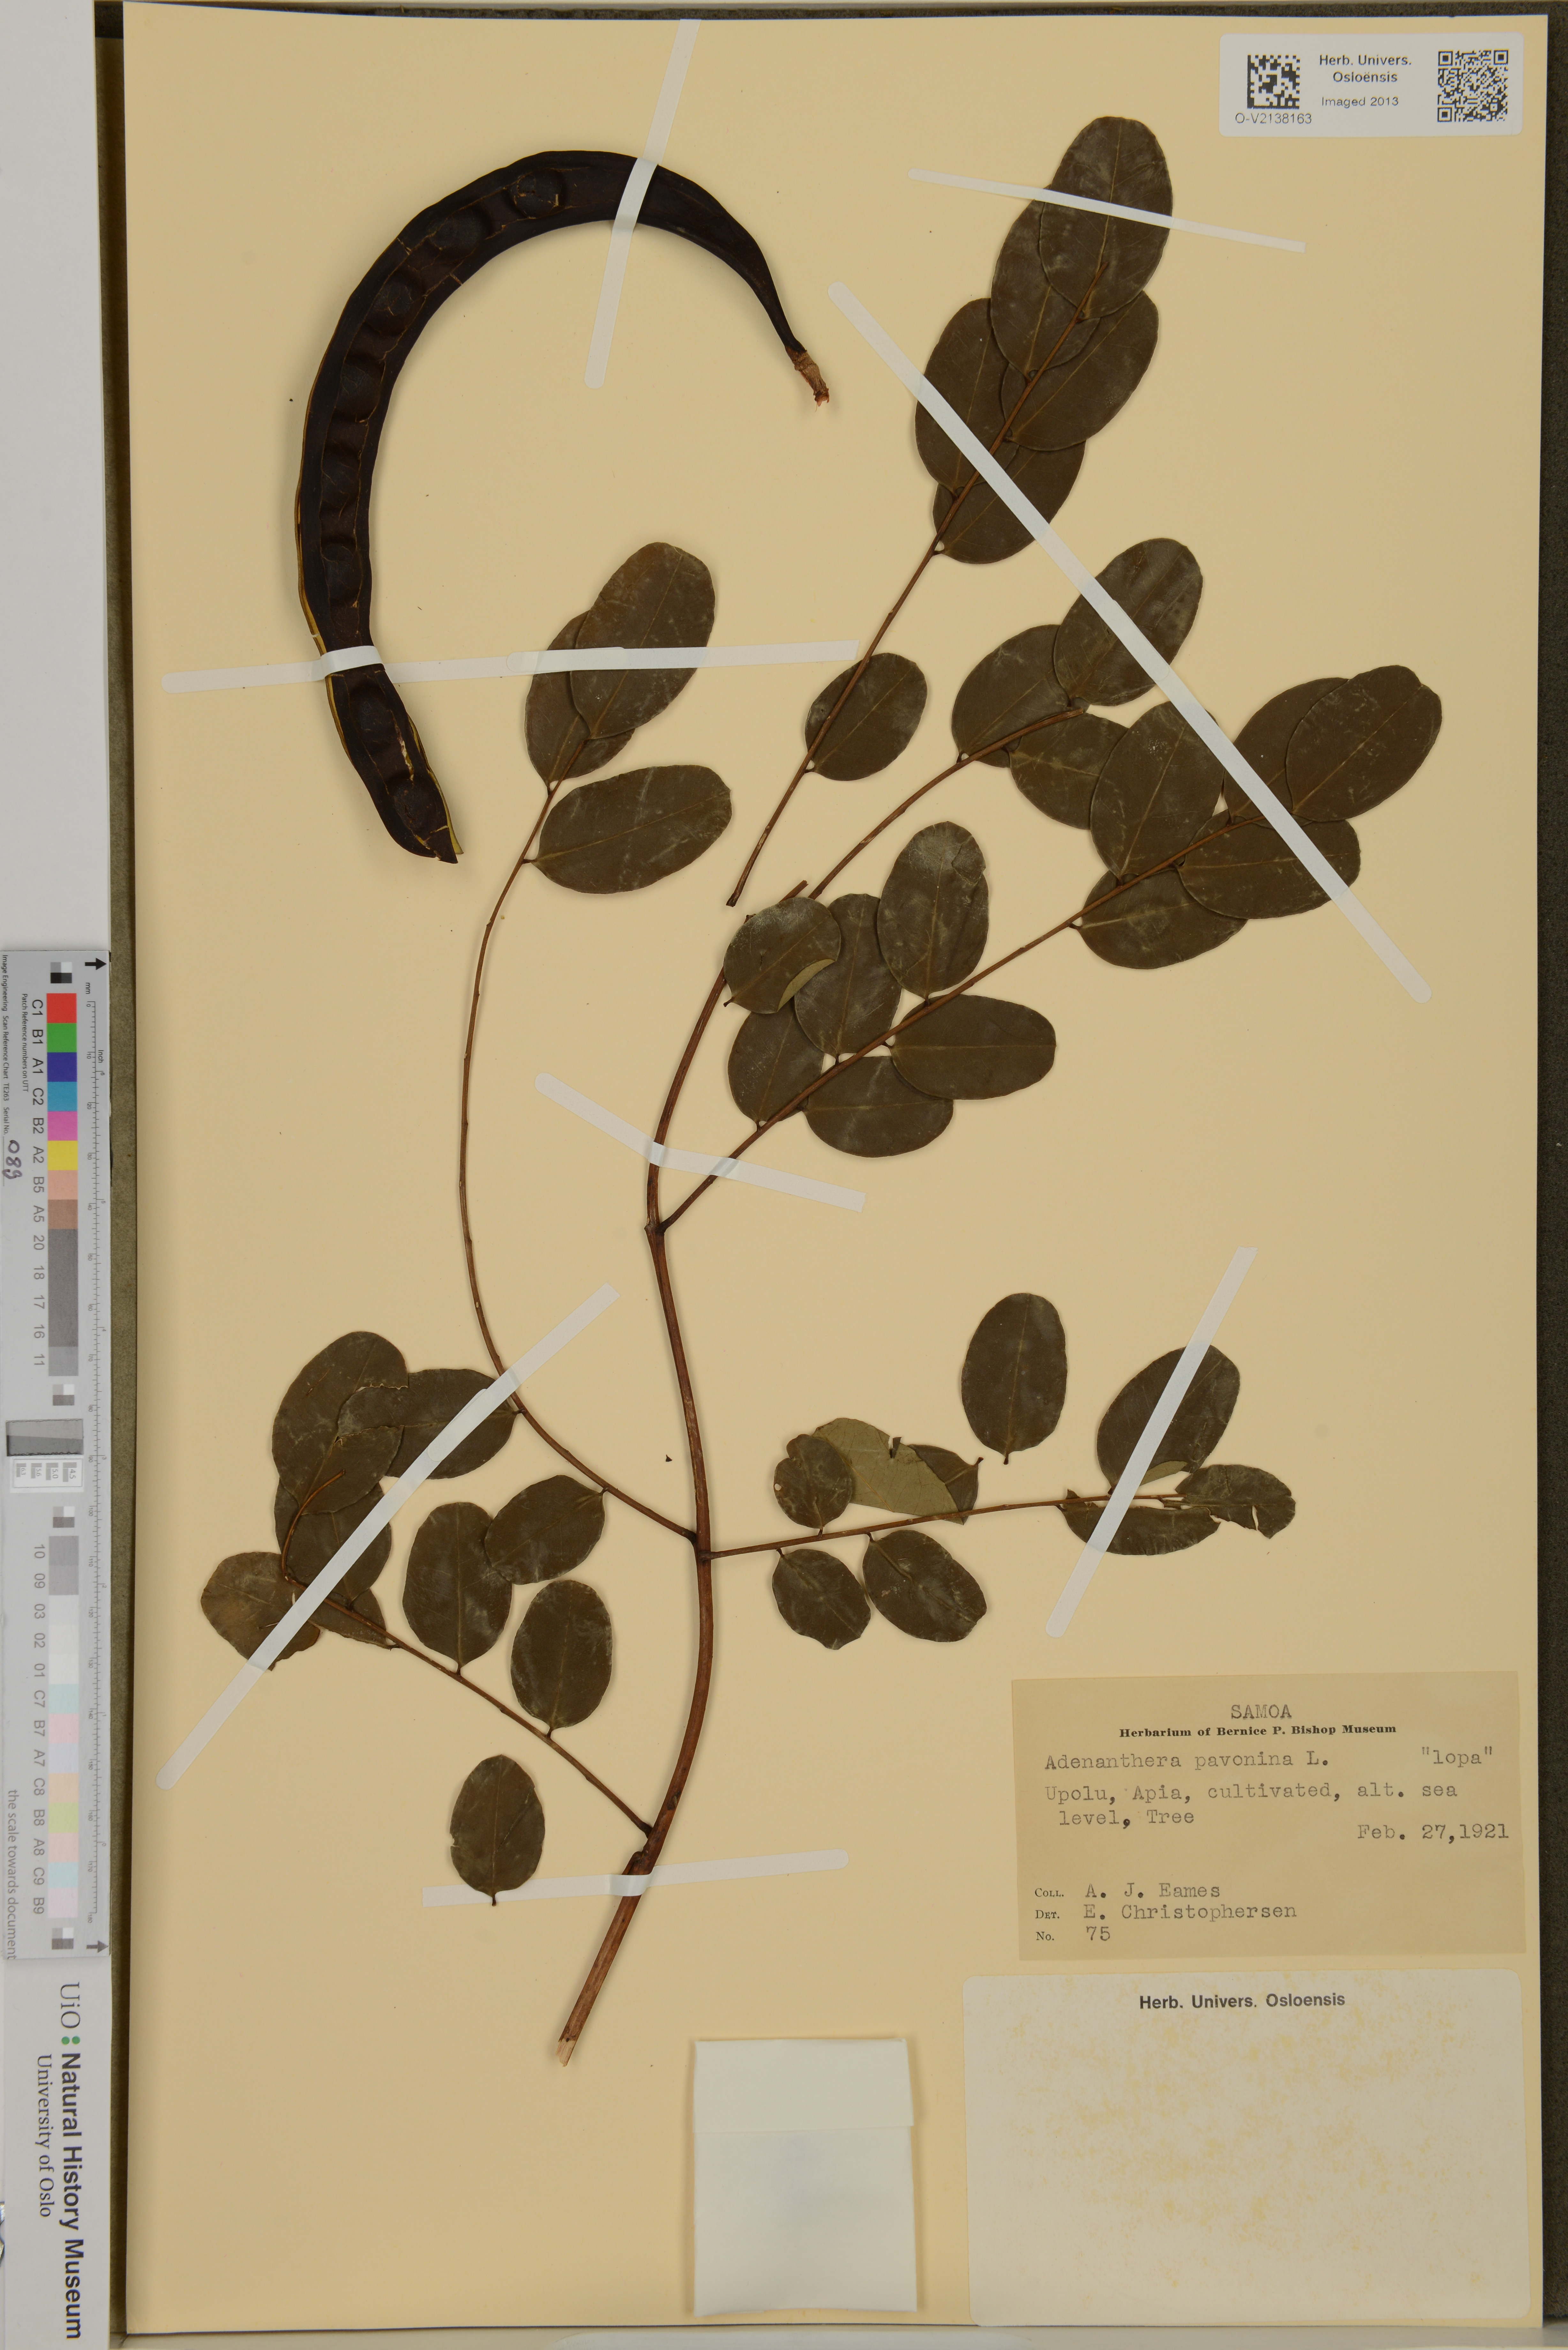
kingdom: Plantae
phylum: Tracheophyta
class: Magnoliopsida
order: Fabales
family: Fabaceae
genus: Adenanthera
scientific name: Adenanthera pavonina
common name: Red beadtree
